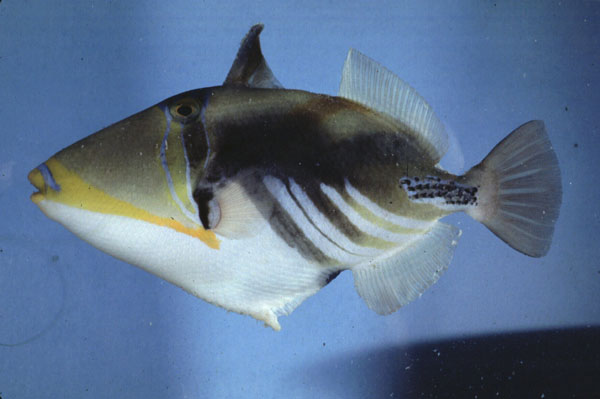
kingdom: Animalia
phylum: Chordata
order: Tetraodontiformes
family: Balistidae
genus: Rhinecanthus
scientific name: Rhinecanthus aculeatus
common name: White-banded triggerfish
